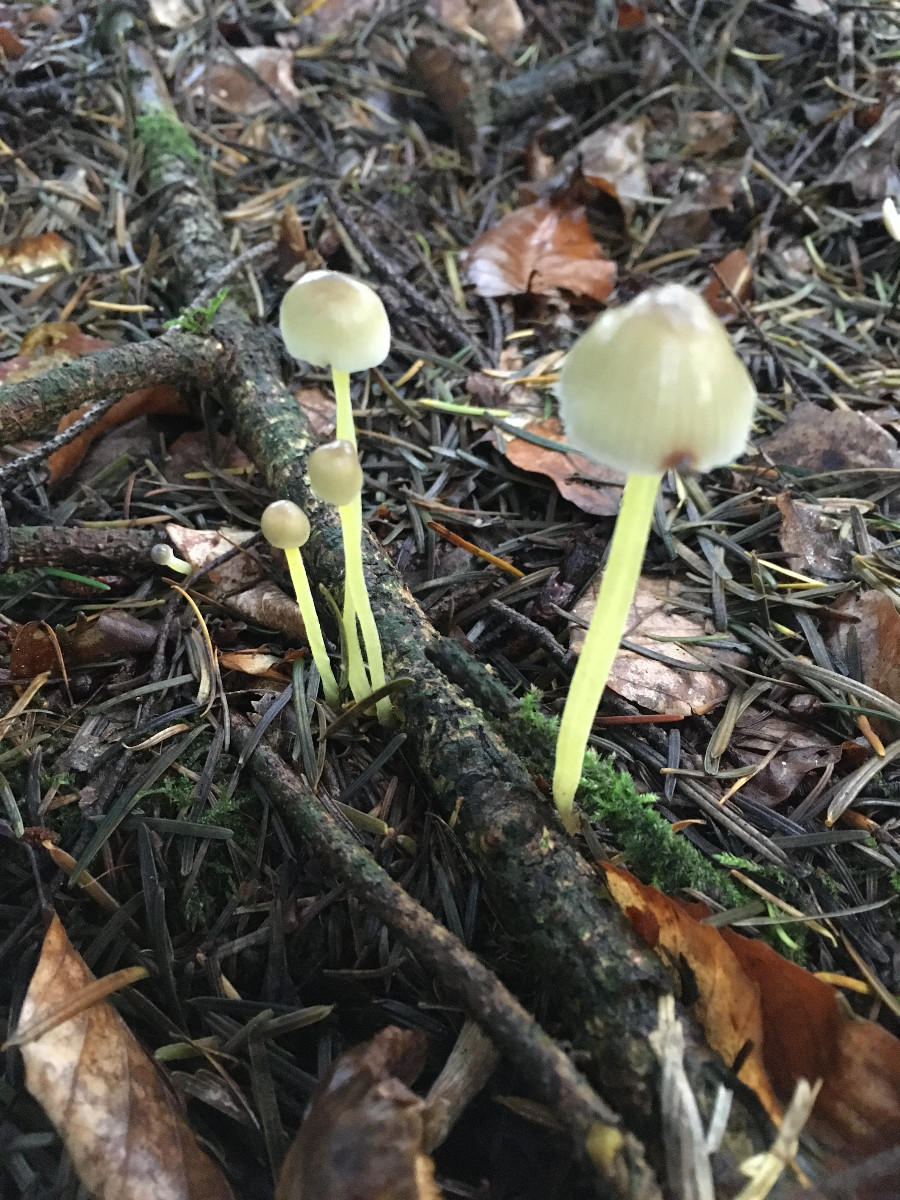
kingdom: Fungi
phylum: Basidiomycota
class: Agaricomycetes
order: Agaricales
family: Mycenaceae
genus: Mycena
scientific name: Mycena epipterygia
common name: gulstokket huesvamp
